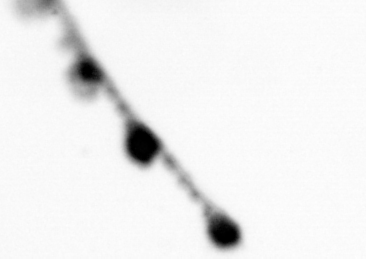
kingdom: Animalia
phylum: Cnidaria
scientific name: Cnidaria
